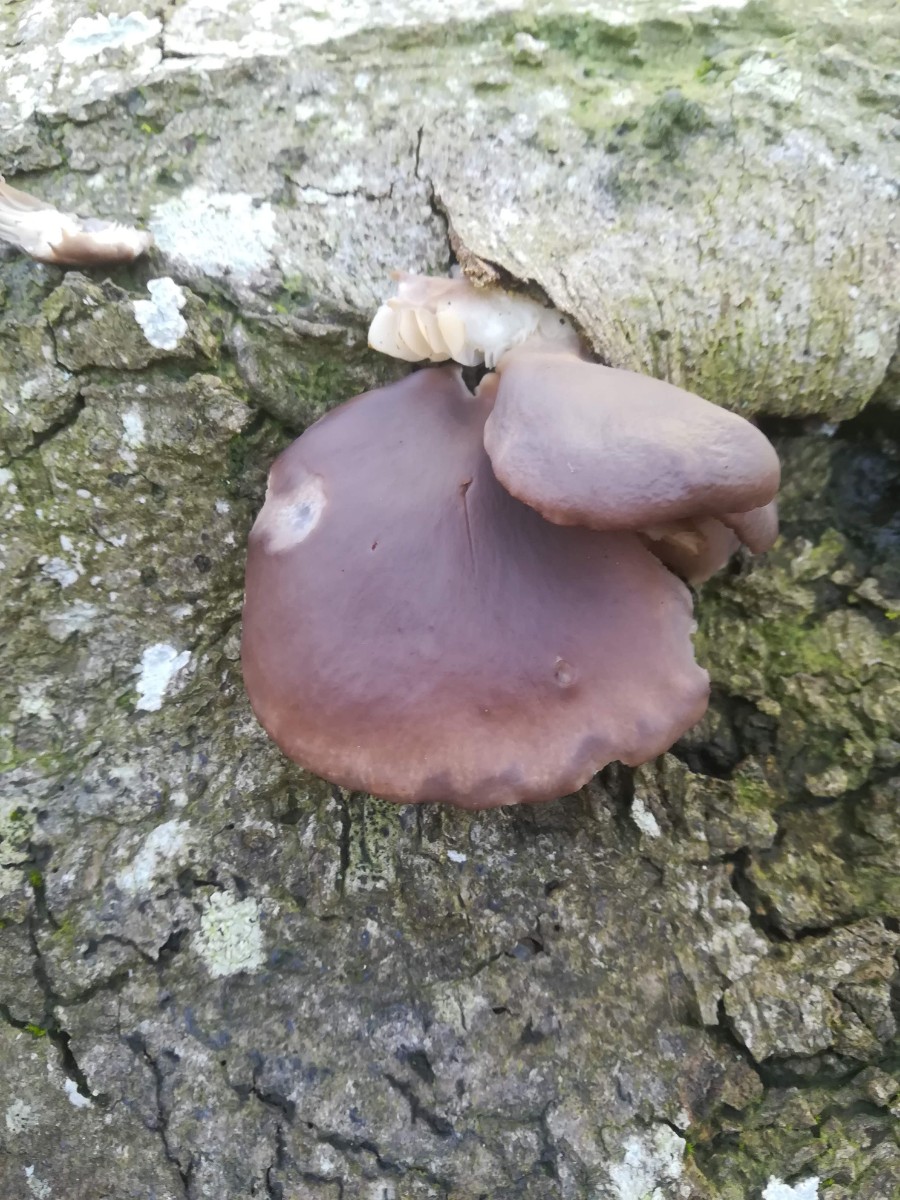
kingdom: Fungi
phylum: Basidiomycota
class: Agaricomycetes
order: Agaricales
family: Pleurotaceae
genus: Pleurotus
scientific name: Pleurotus ostreatus
